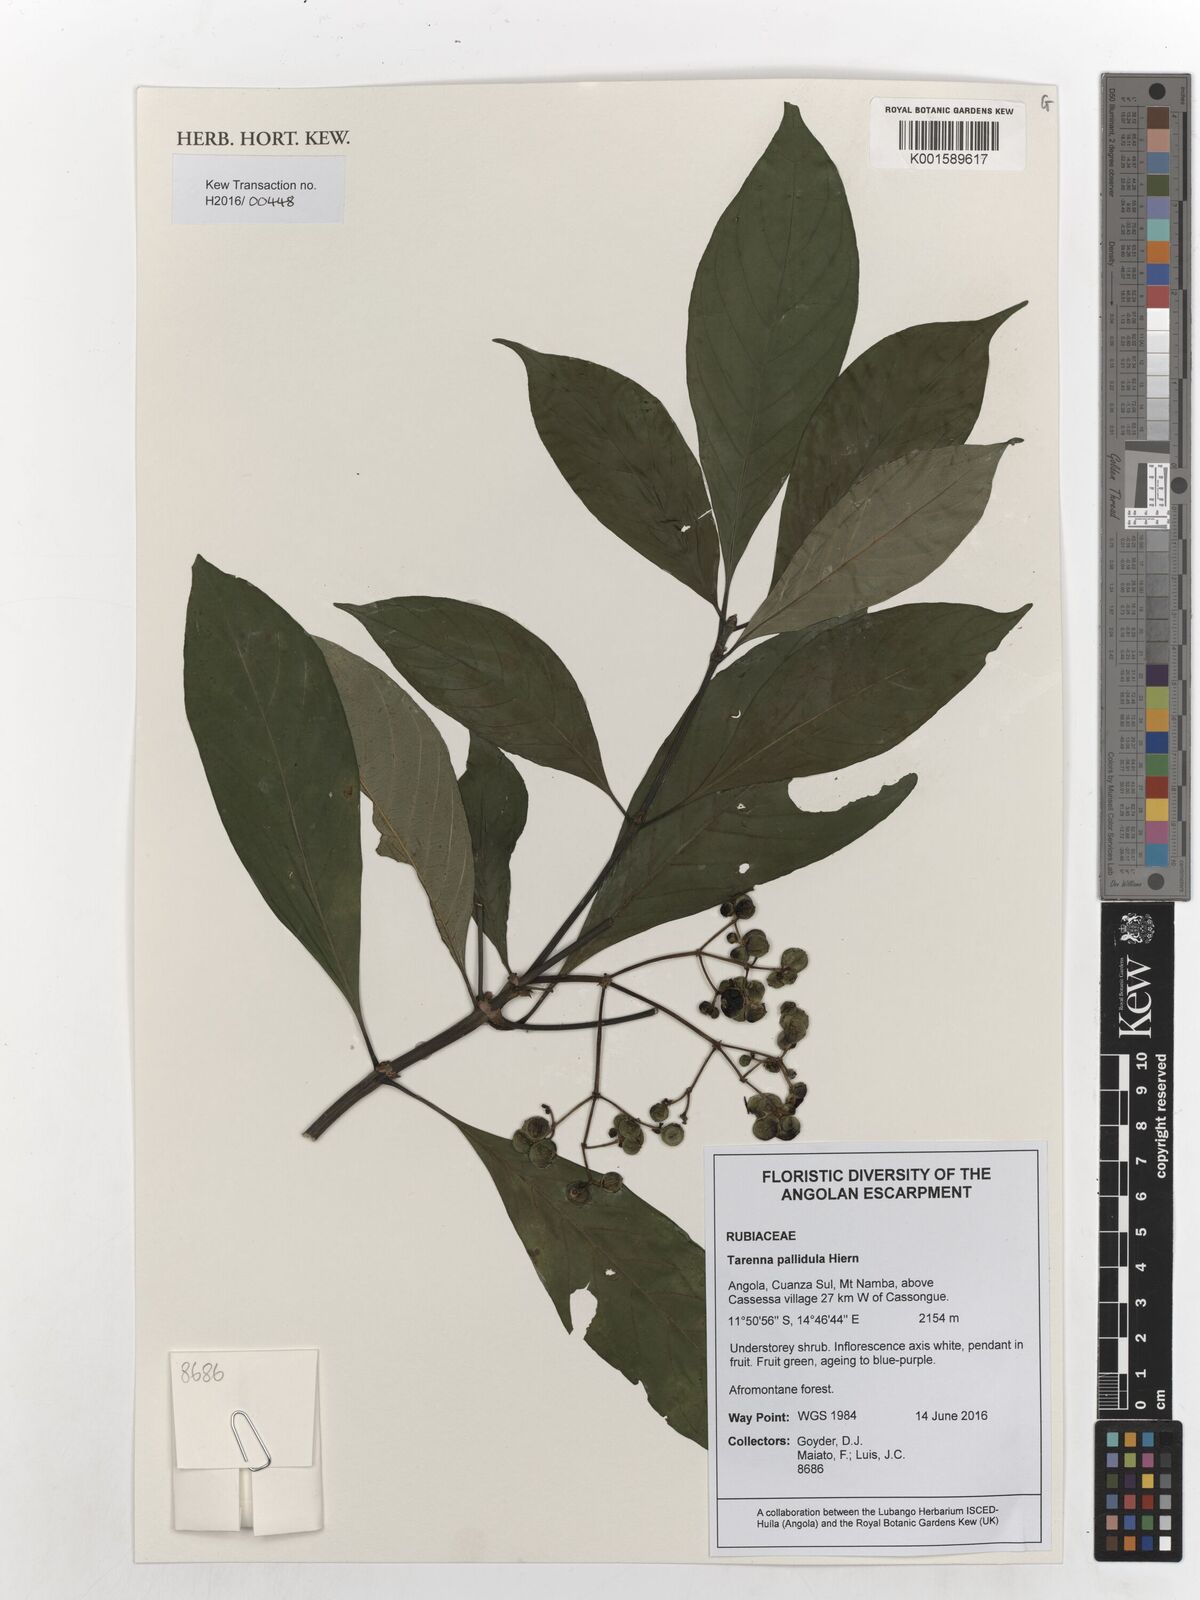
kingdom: Plantae
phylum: Tracheophyta
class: Magnoliopsida
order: Gentianales
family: Rubiaceae
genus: Tarenna
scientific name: Tarenna pallidula
